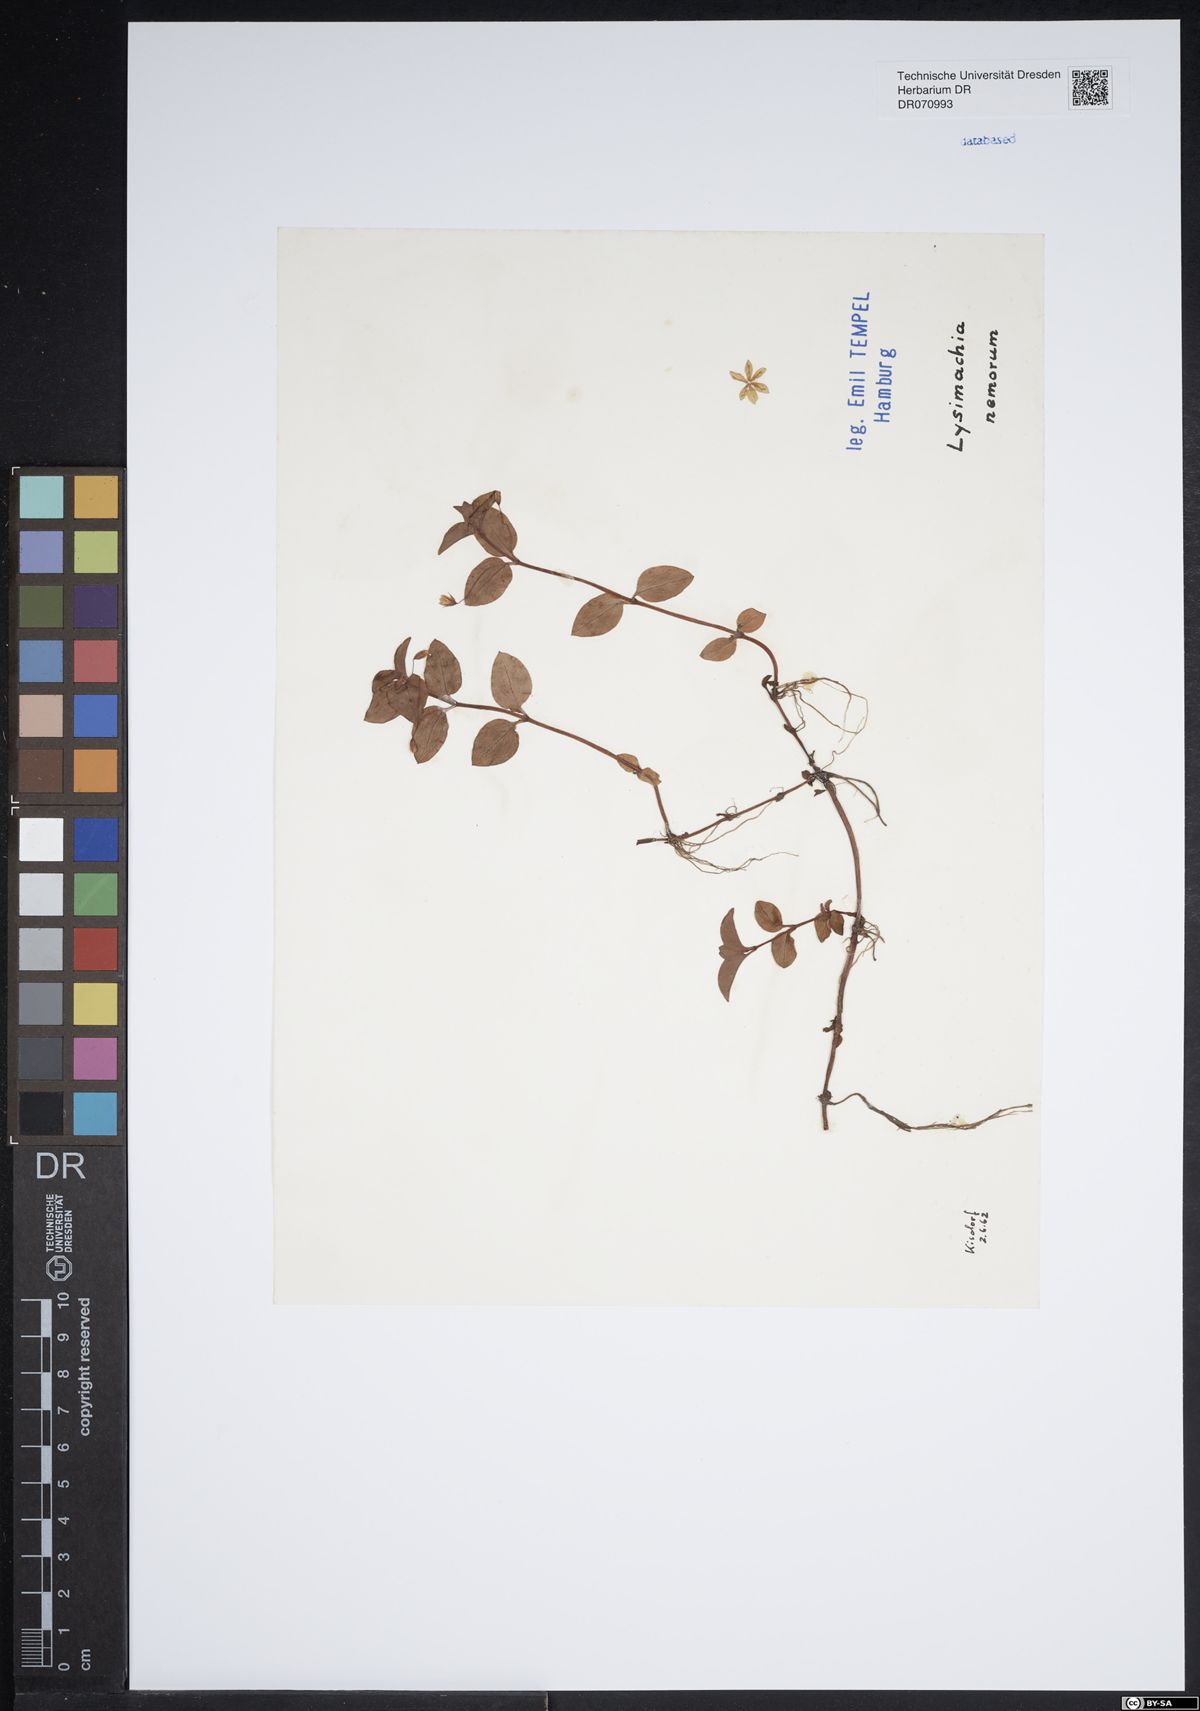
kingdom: Plantae
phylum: Tracheophyta
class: Magnoliopsida
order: Ericales
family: Primulaceae
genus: Lysimachia
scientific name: Lysimachia nemorum
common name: Yellow pimpernel
